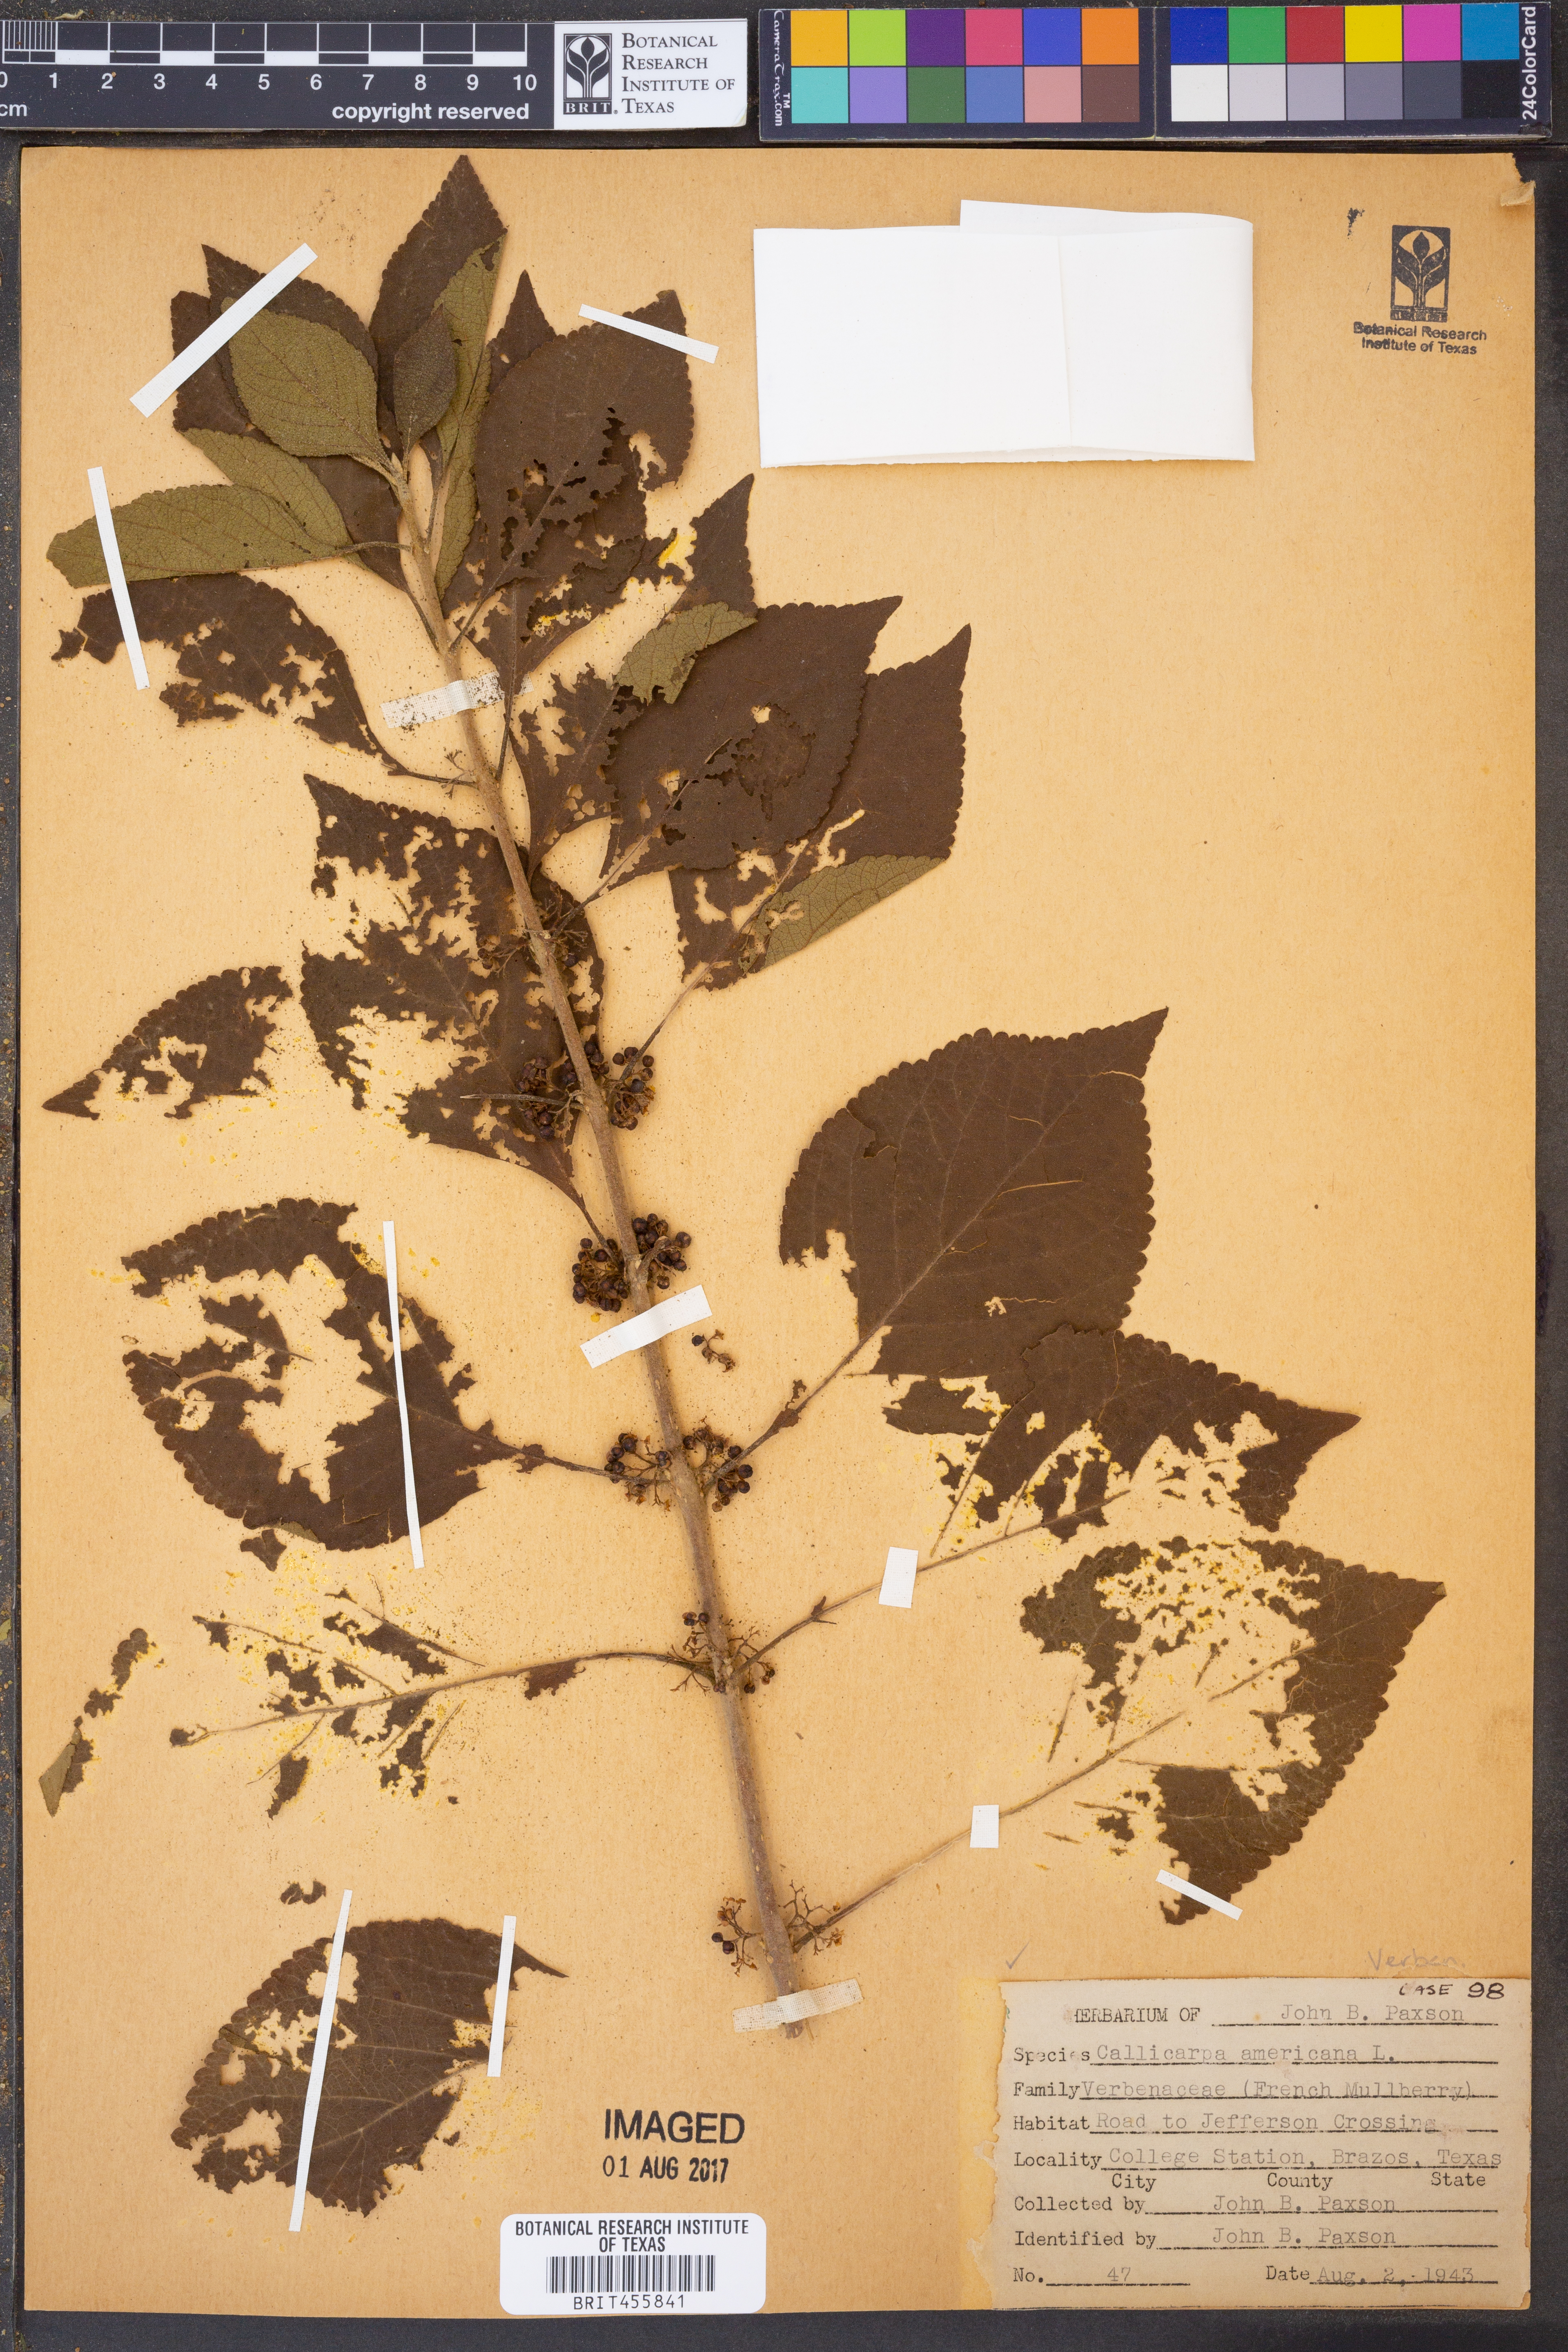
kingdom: Plantae
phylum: Tracheophyta
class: Magnoliopsida
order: Lamiales
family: Lamiaceae
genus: Callicarpa
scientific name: Callicarpa americana
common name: American beautyberry
